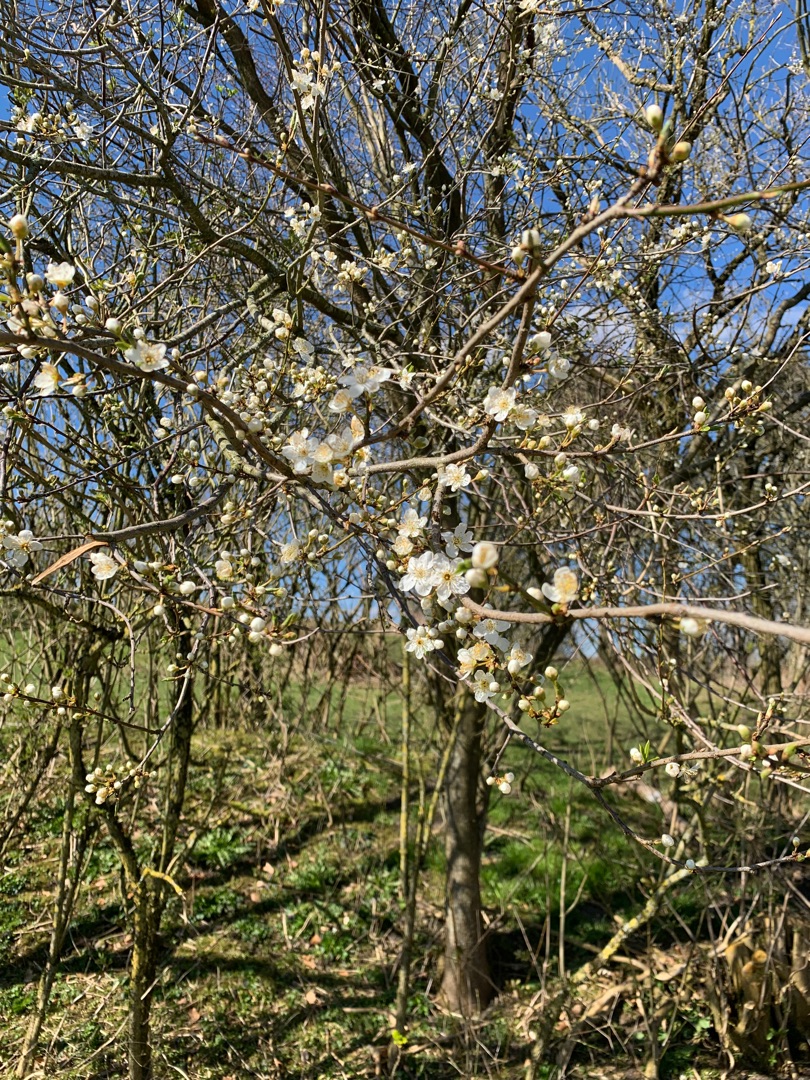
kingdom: Plantae
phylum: Tracheophyta
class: Magnoliopsida
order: Rosales
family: Rosaceae
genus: Prunus
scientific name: Prunus cerasifera
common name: Mirabel
